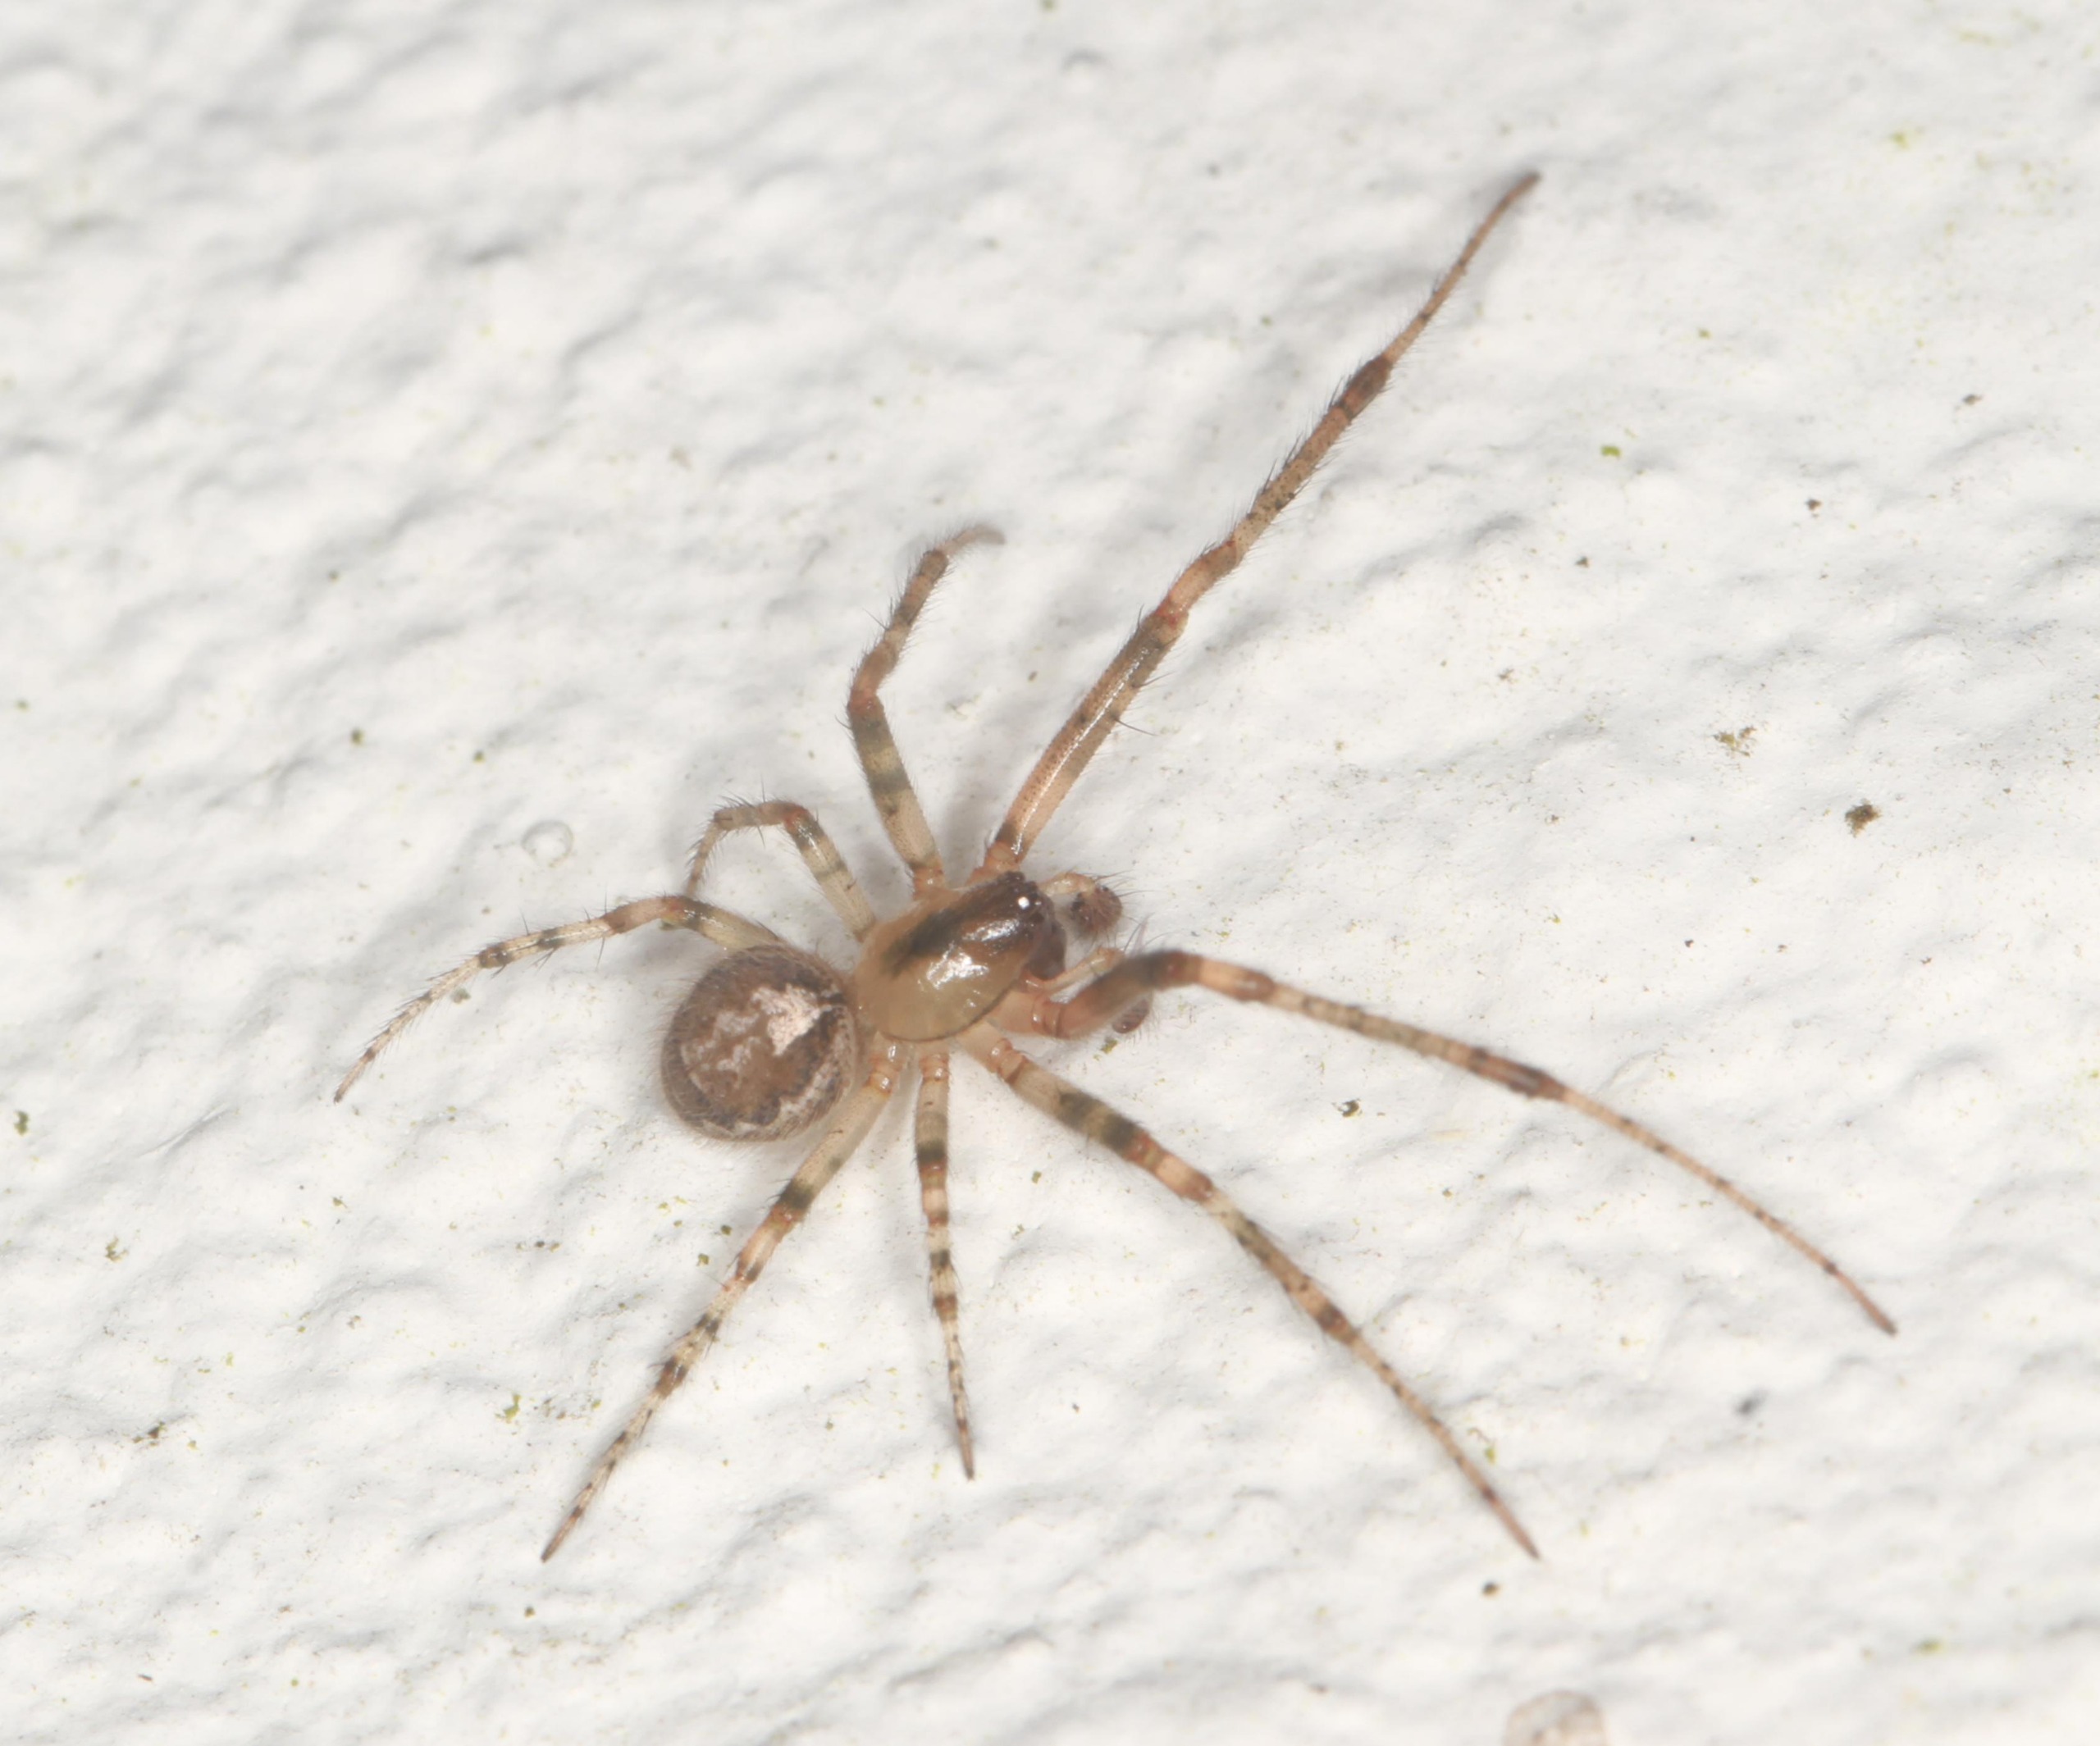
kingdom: Animalia
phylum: Arthropoda
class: Arachnida
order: Araneae
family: Araneidae
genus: Zygiella
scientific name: Zygiella x-notata
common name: Grå sektoredderkop
